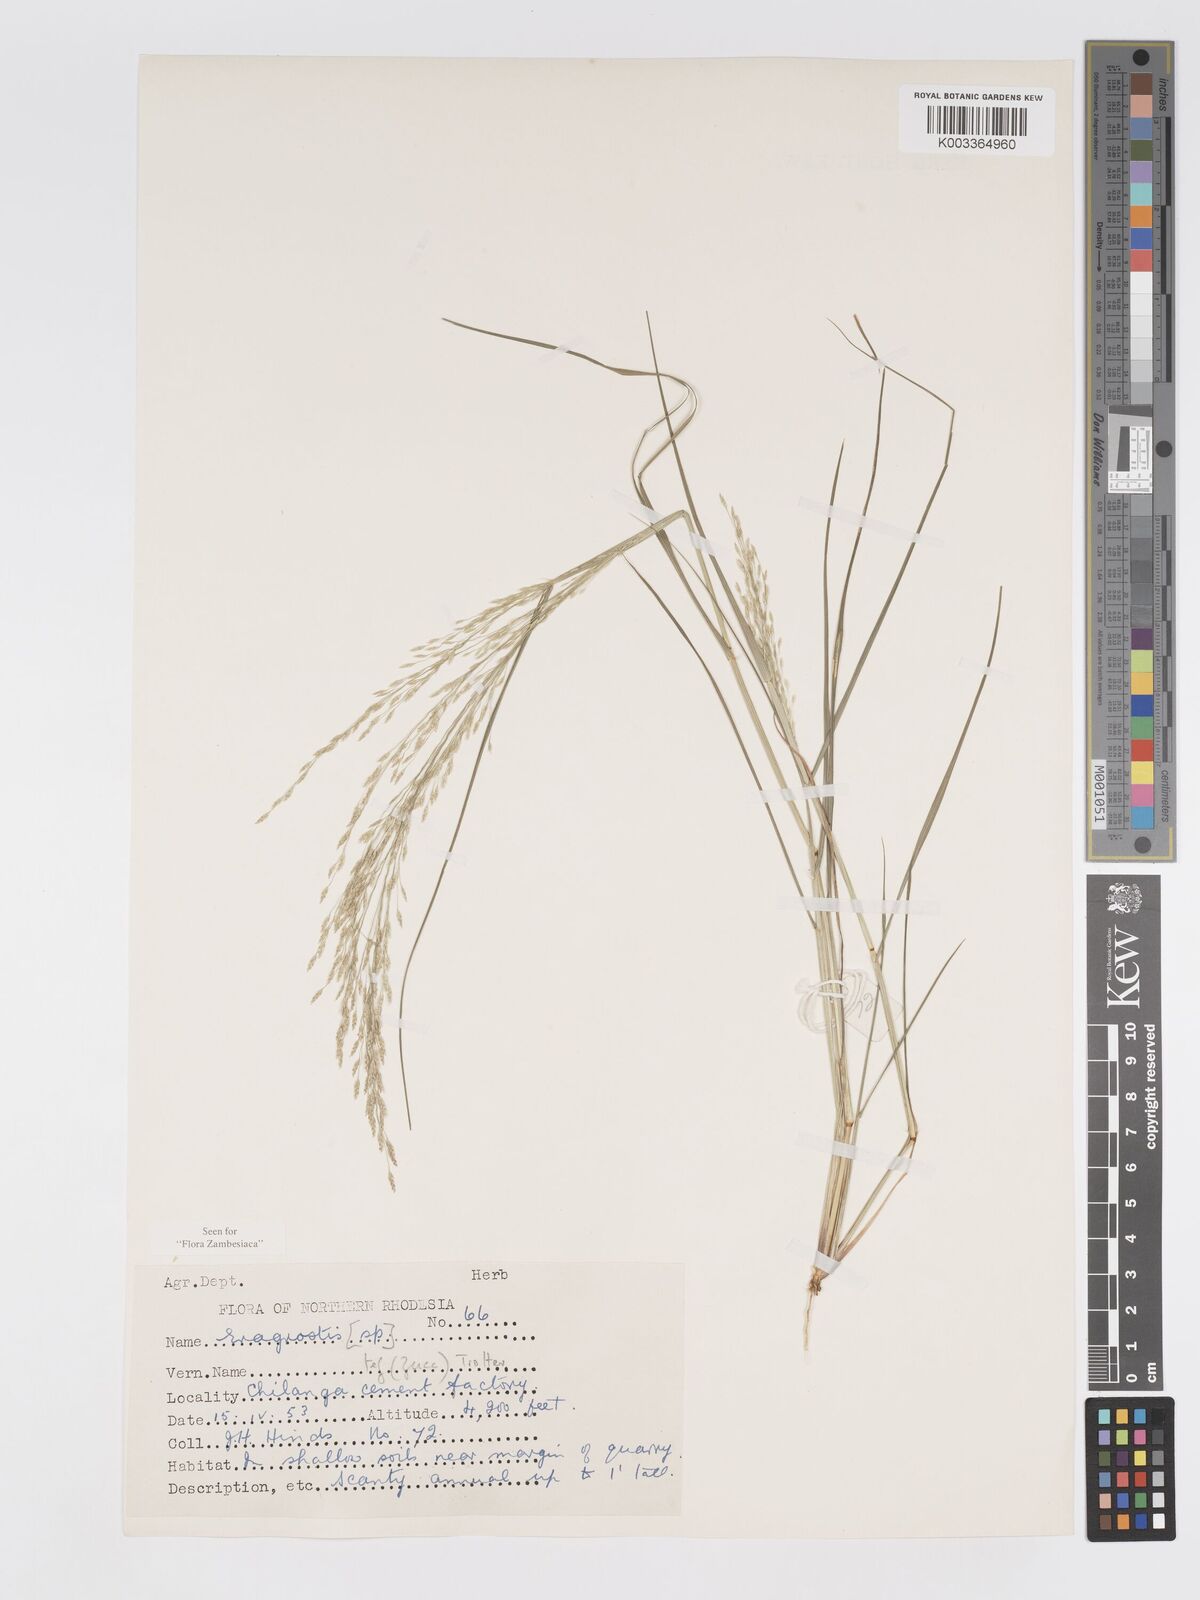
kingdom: Plantae
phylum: Tracheophyta
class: Liliopsida
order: Poales
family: Poaceae
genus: Eragrostis
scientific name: Eragrostis tef
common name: Teff
